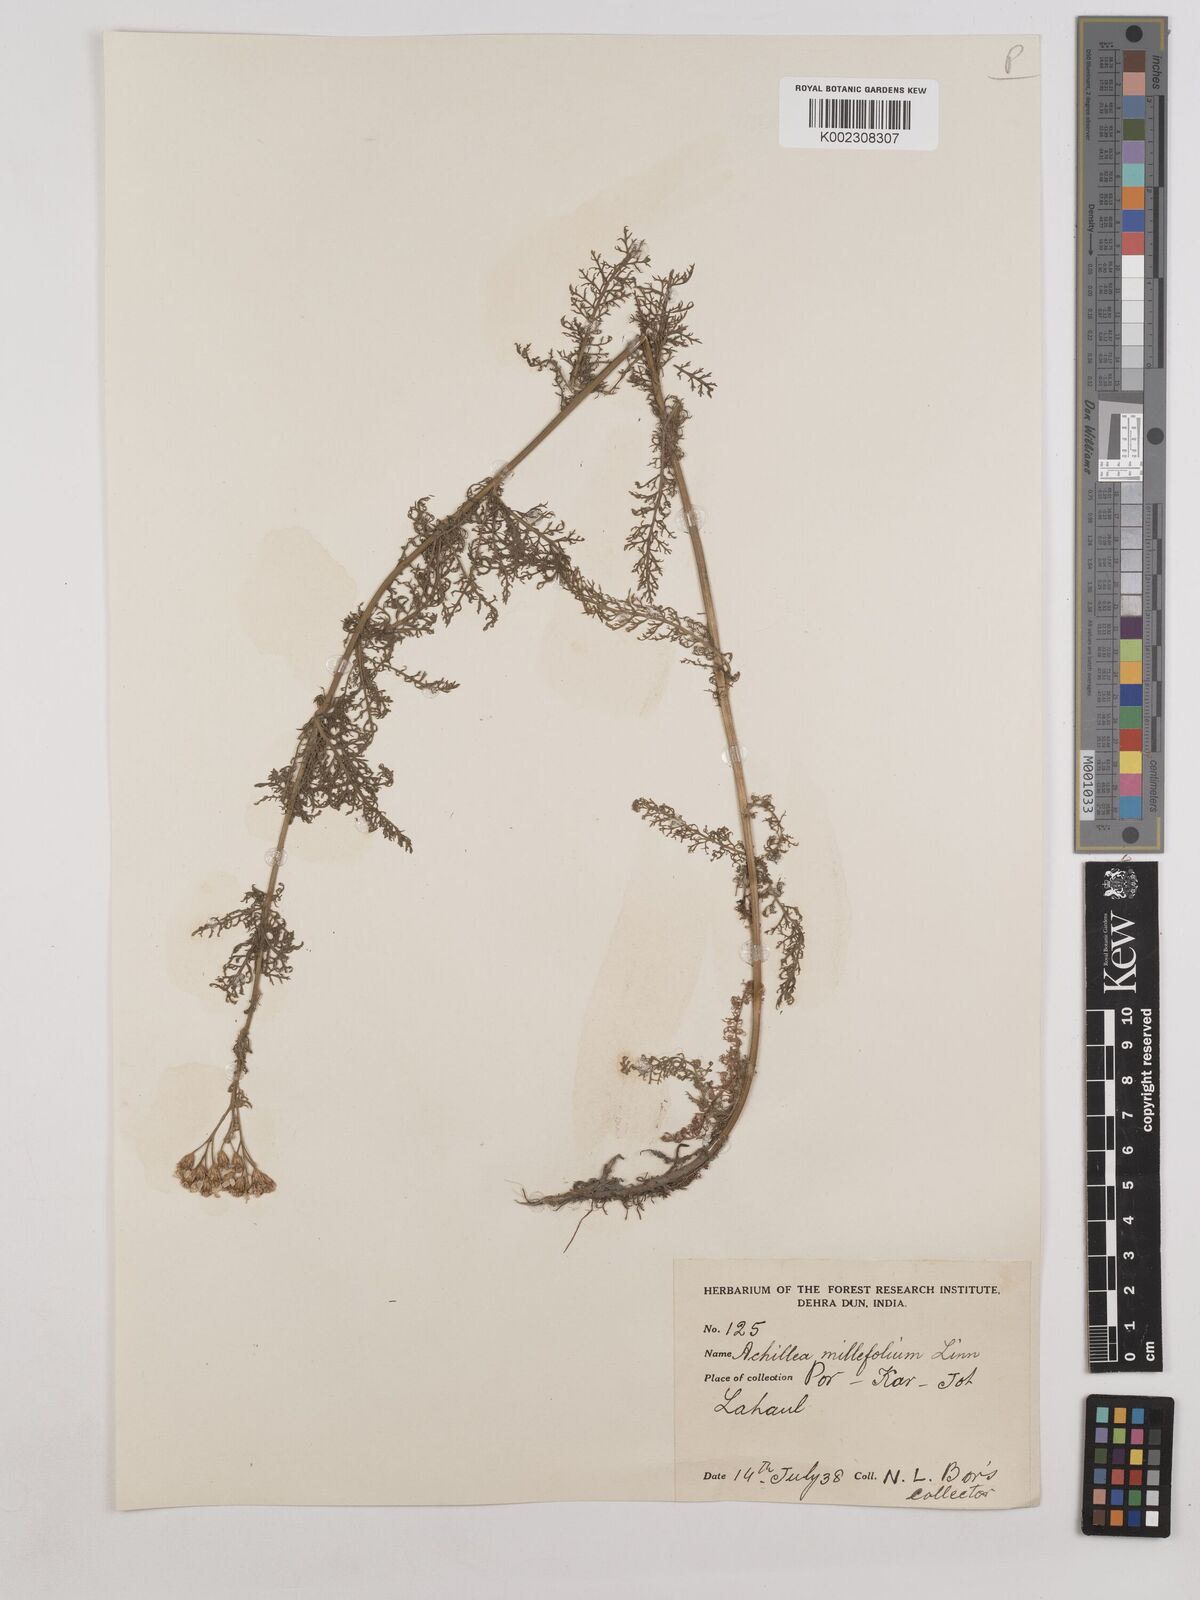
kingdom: Plantae
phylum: Tracheophyta
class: Magnoliopsida
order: Asterales
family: Asteraceae
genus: Achillea
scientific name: Achillea millefolium
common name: Yarrow
